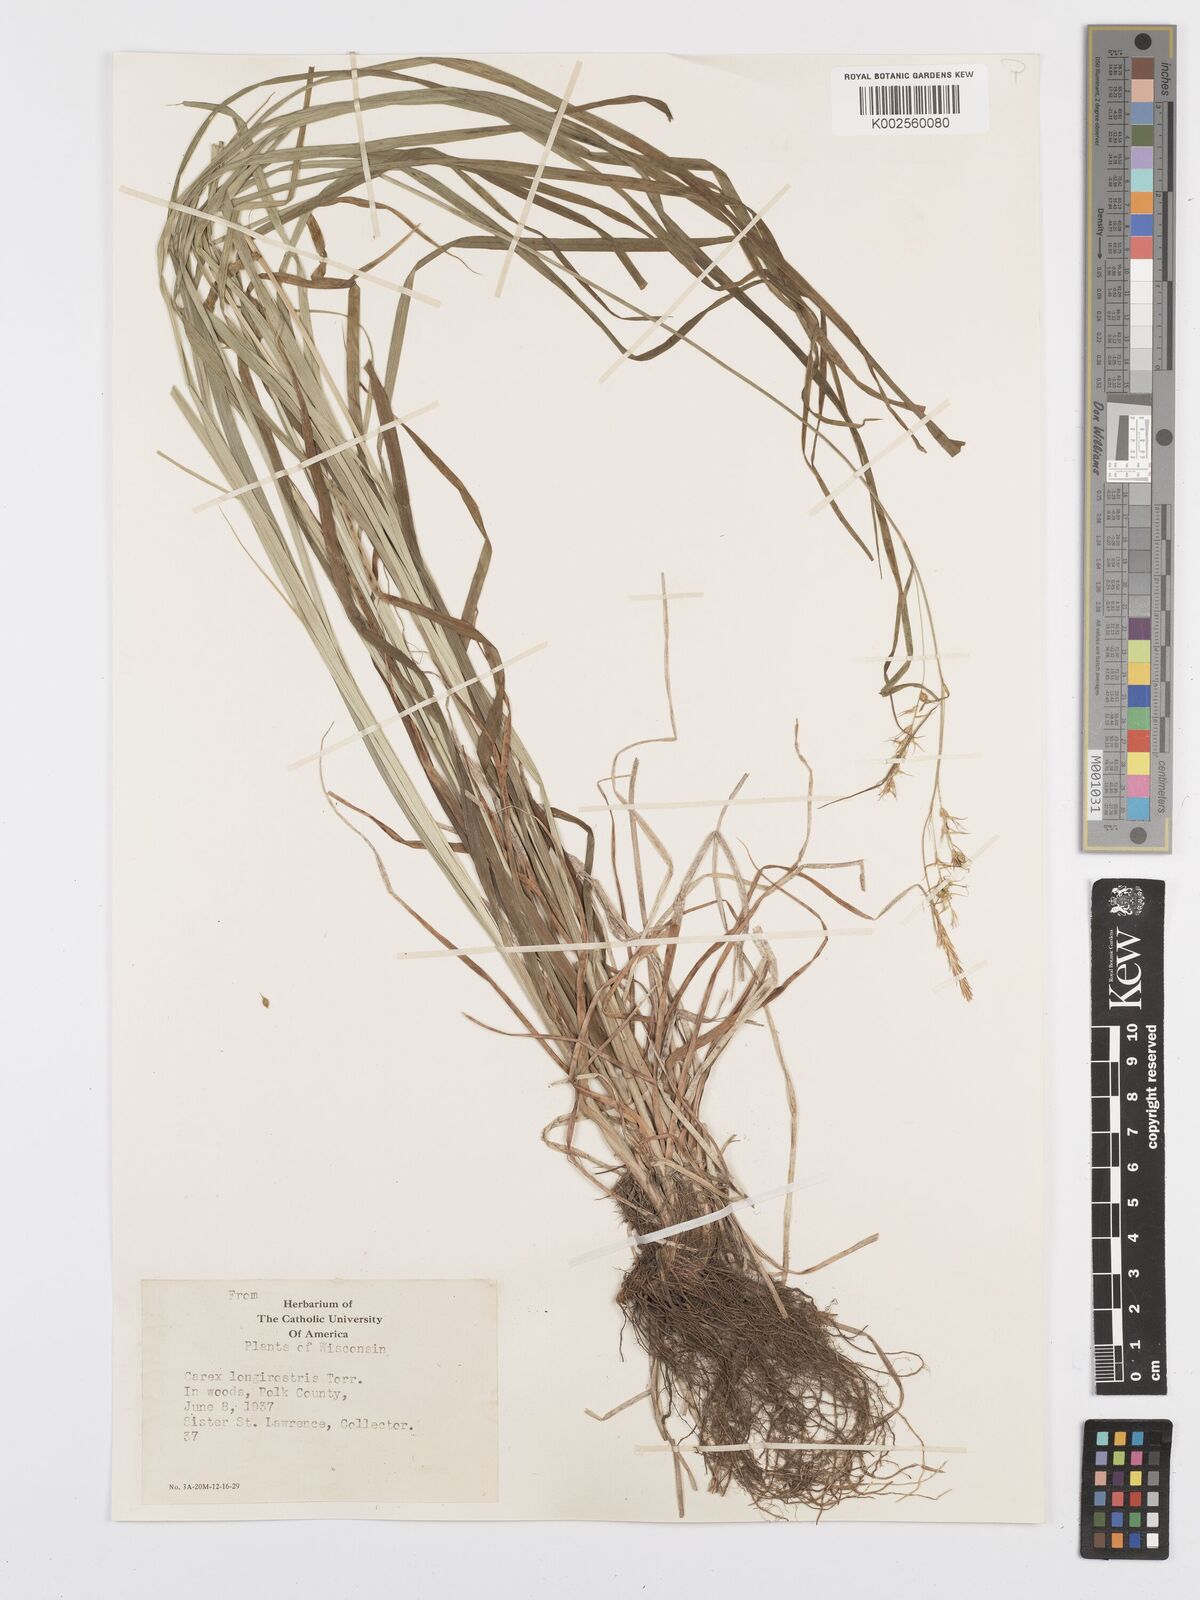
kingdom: Plantae
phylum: Tracheophyta
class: Liliopsida
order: Poales
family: Cyperaceae
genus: Carex
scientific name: Carex sprengelii
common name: Long-beaked sedge
